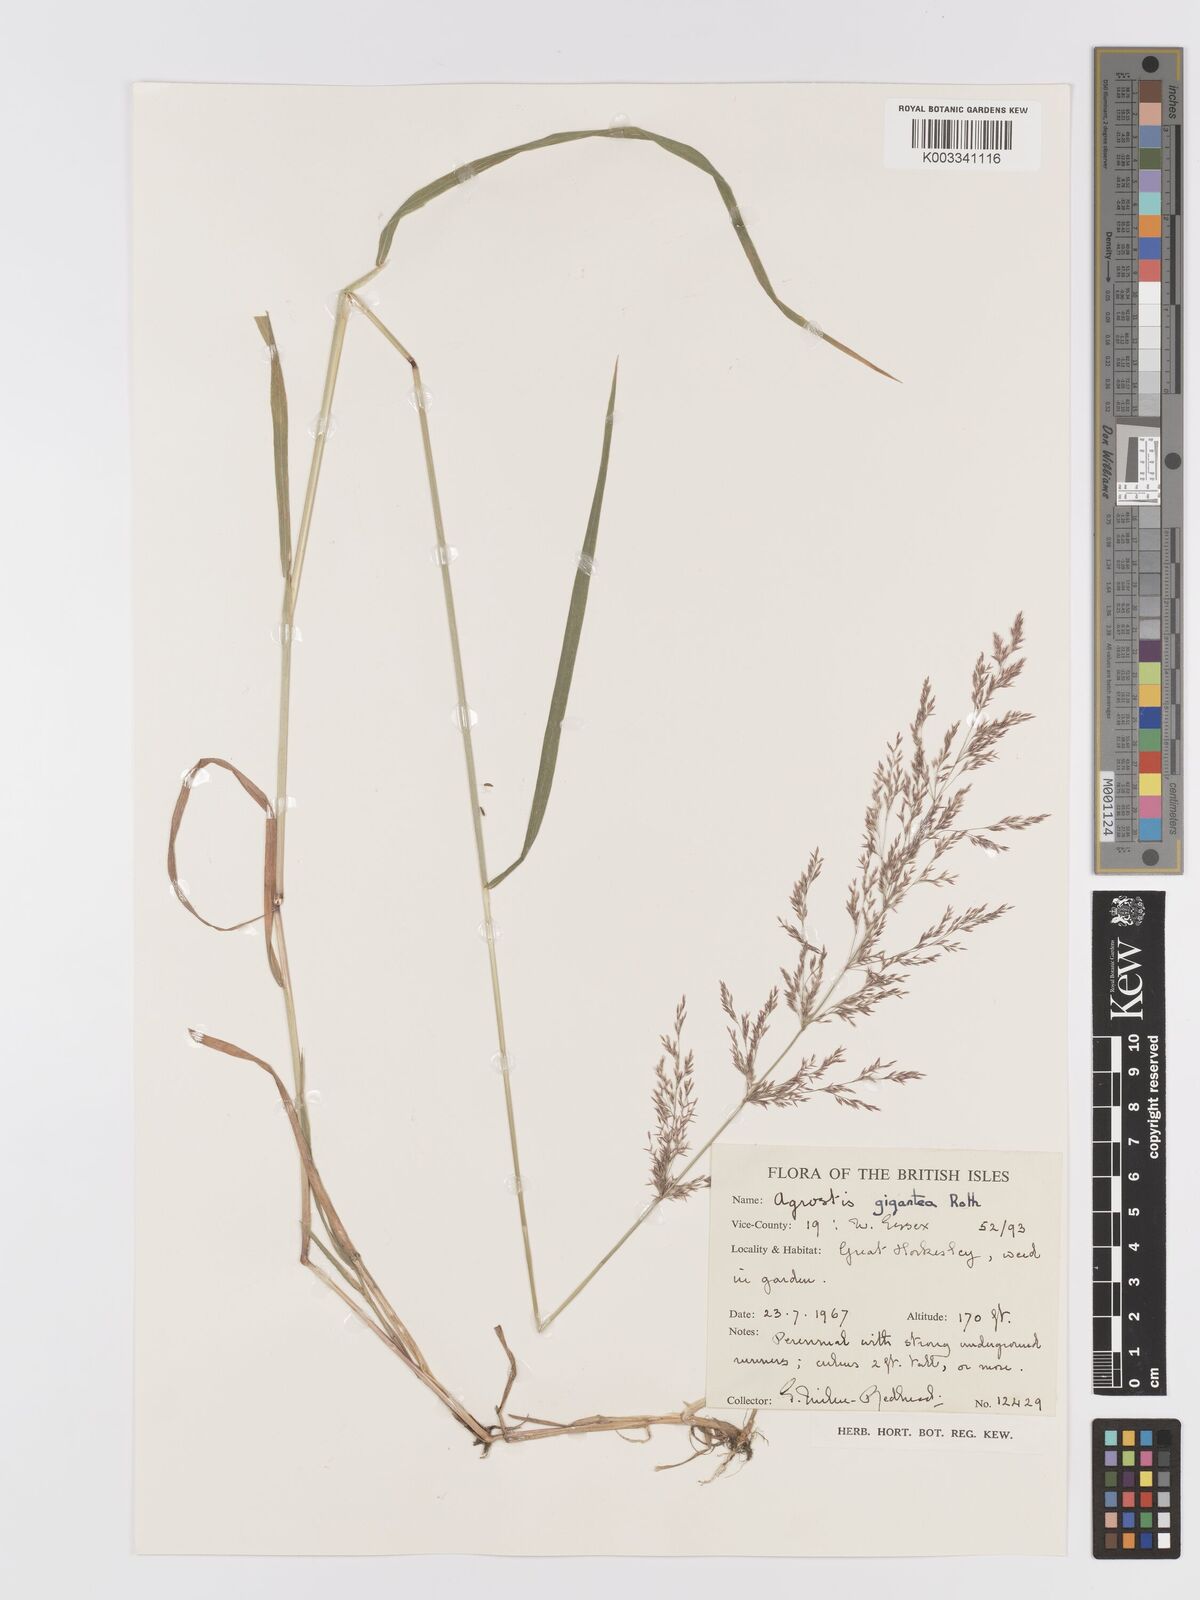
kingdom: Plantae
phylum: Tracheophyta
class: Liliopsida
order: Poales
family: Poaceae
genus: Agrostis
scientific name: Agrostis gigantea
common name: Black bent
